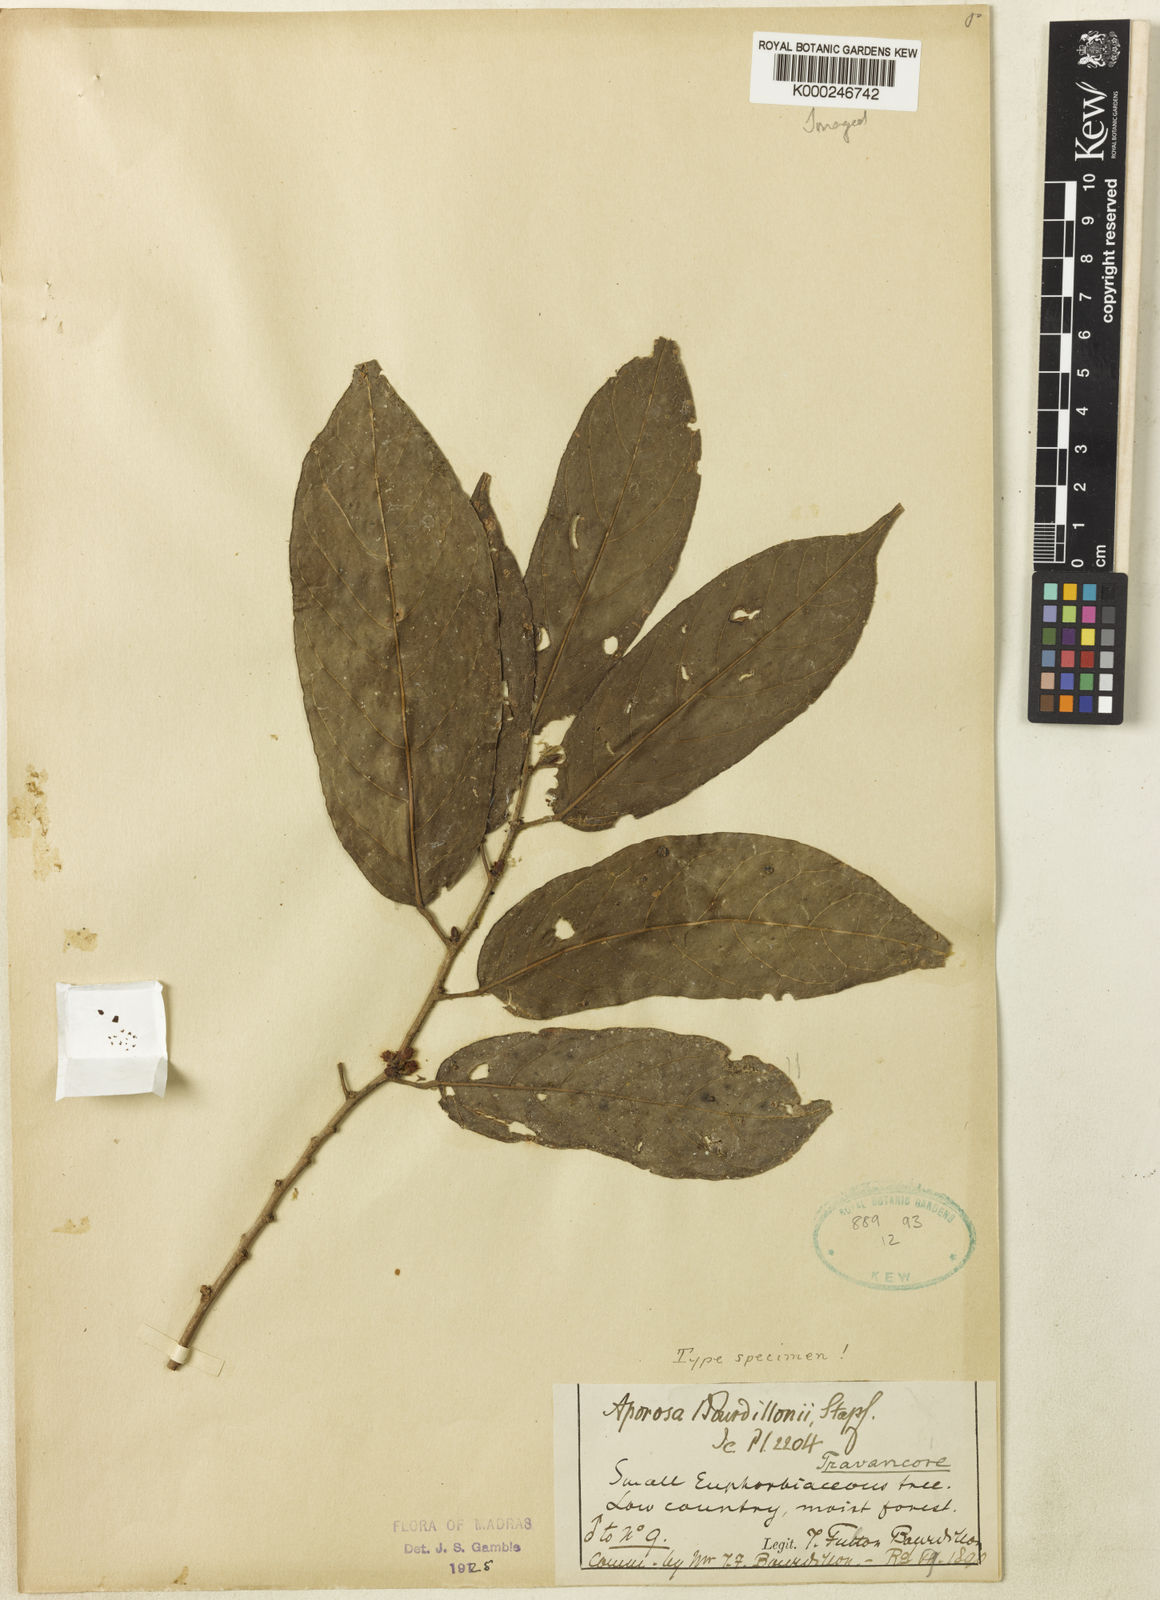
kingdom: Plantae
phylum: Tracheophyta
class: Magnoliopsida
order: Malpighiales
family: Phyllanthaceae
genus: Aporosa
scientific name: Aporosa bourdillonii
